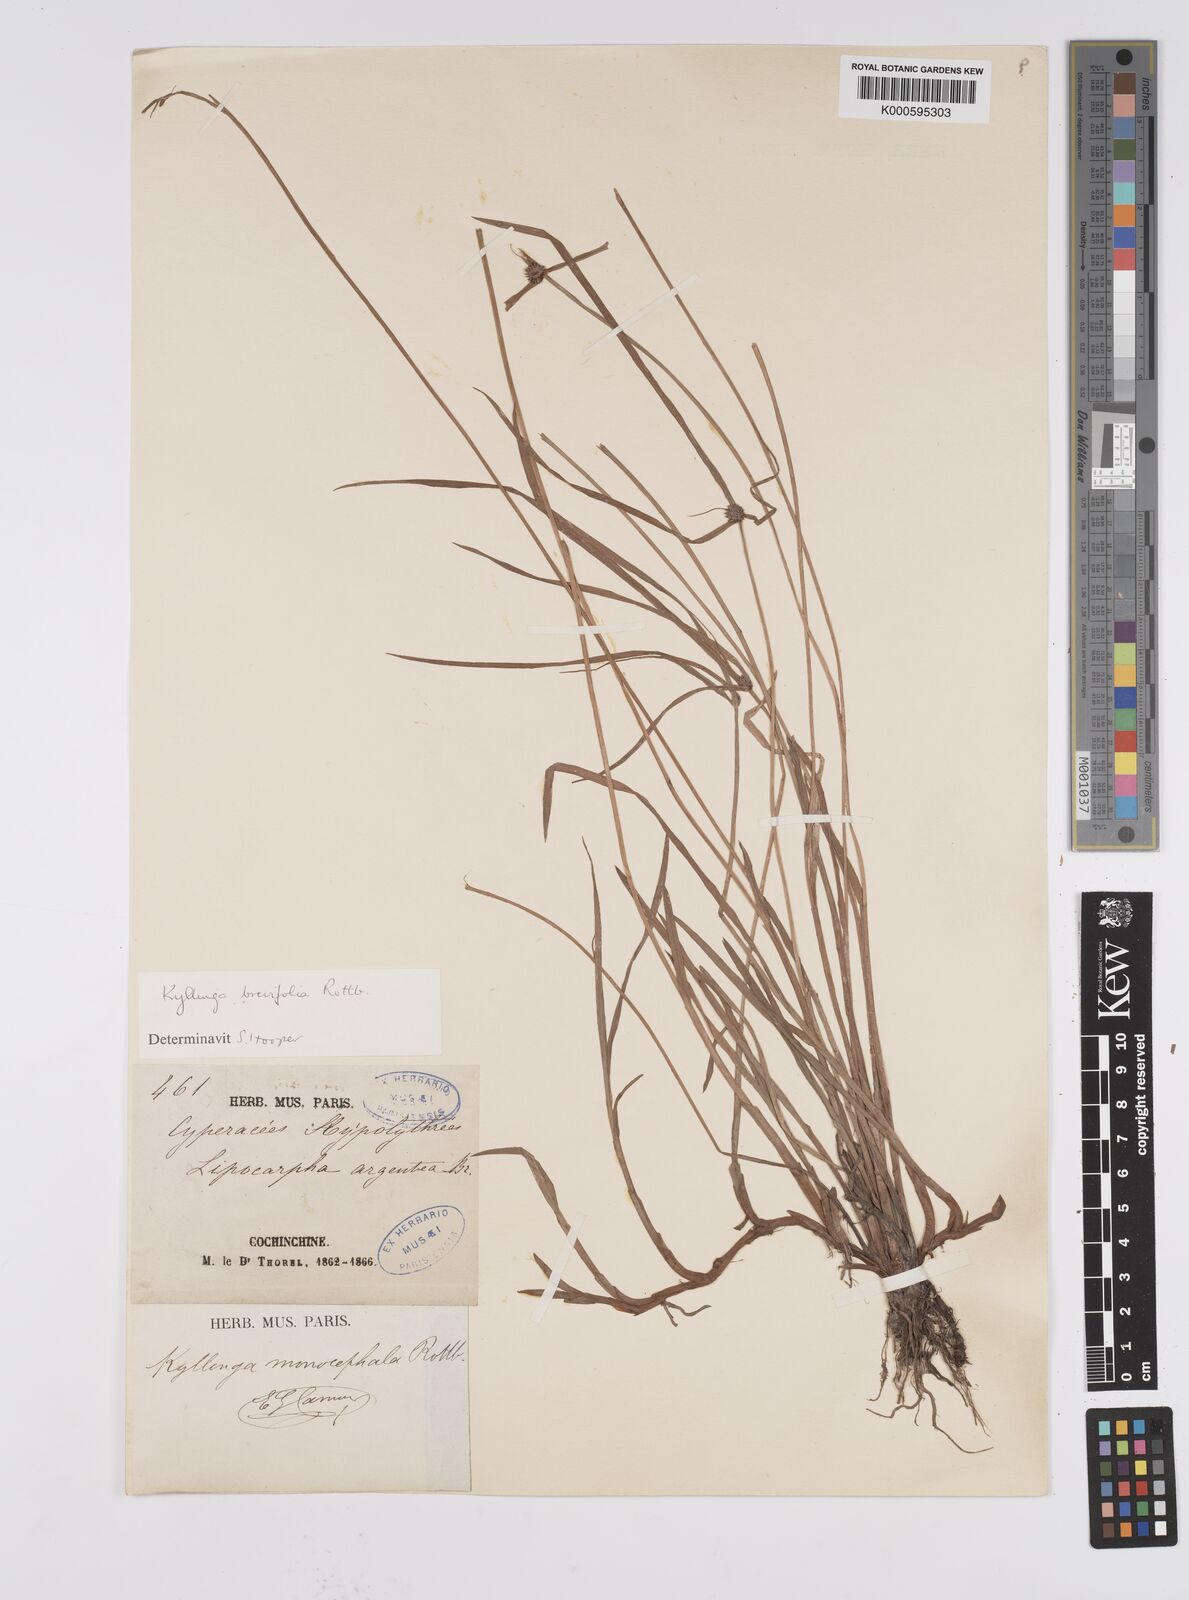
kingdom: Plantae
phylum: Tracheophyta
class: Liliopsida
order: Poales
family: Cyperaceae
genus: Cyperus
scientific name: Cyperus brevifolius
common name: Globe kyllinga
